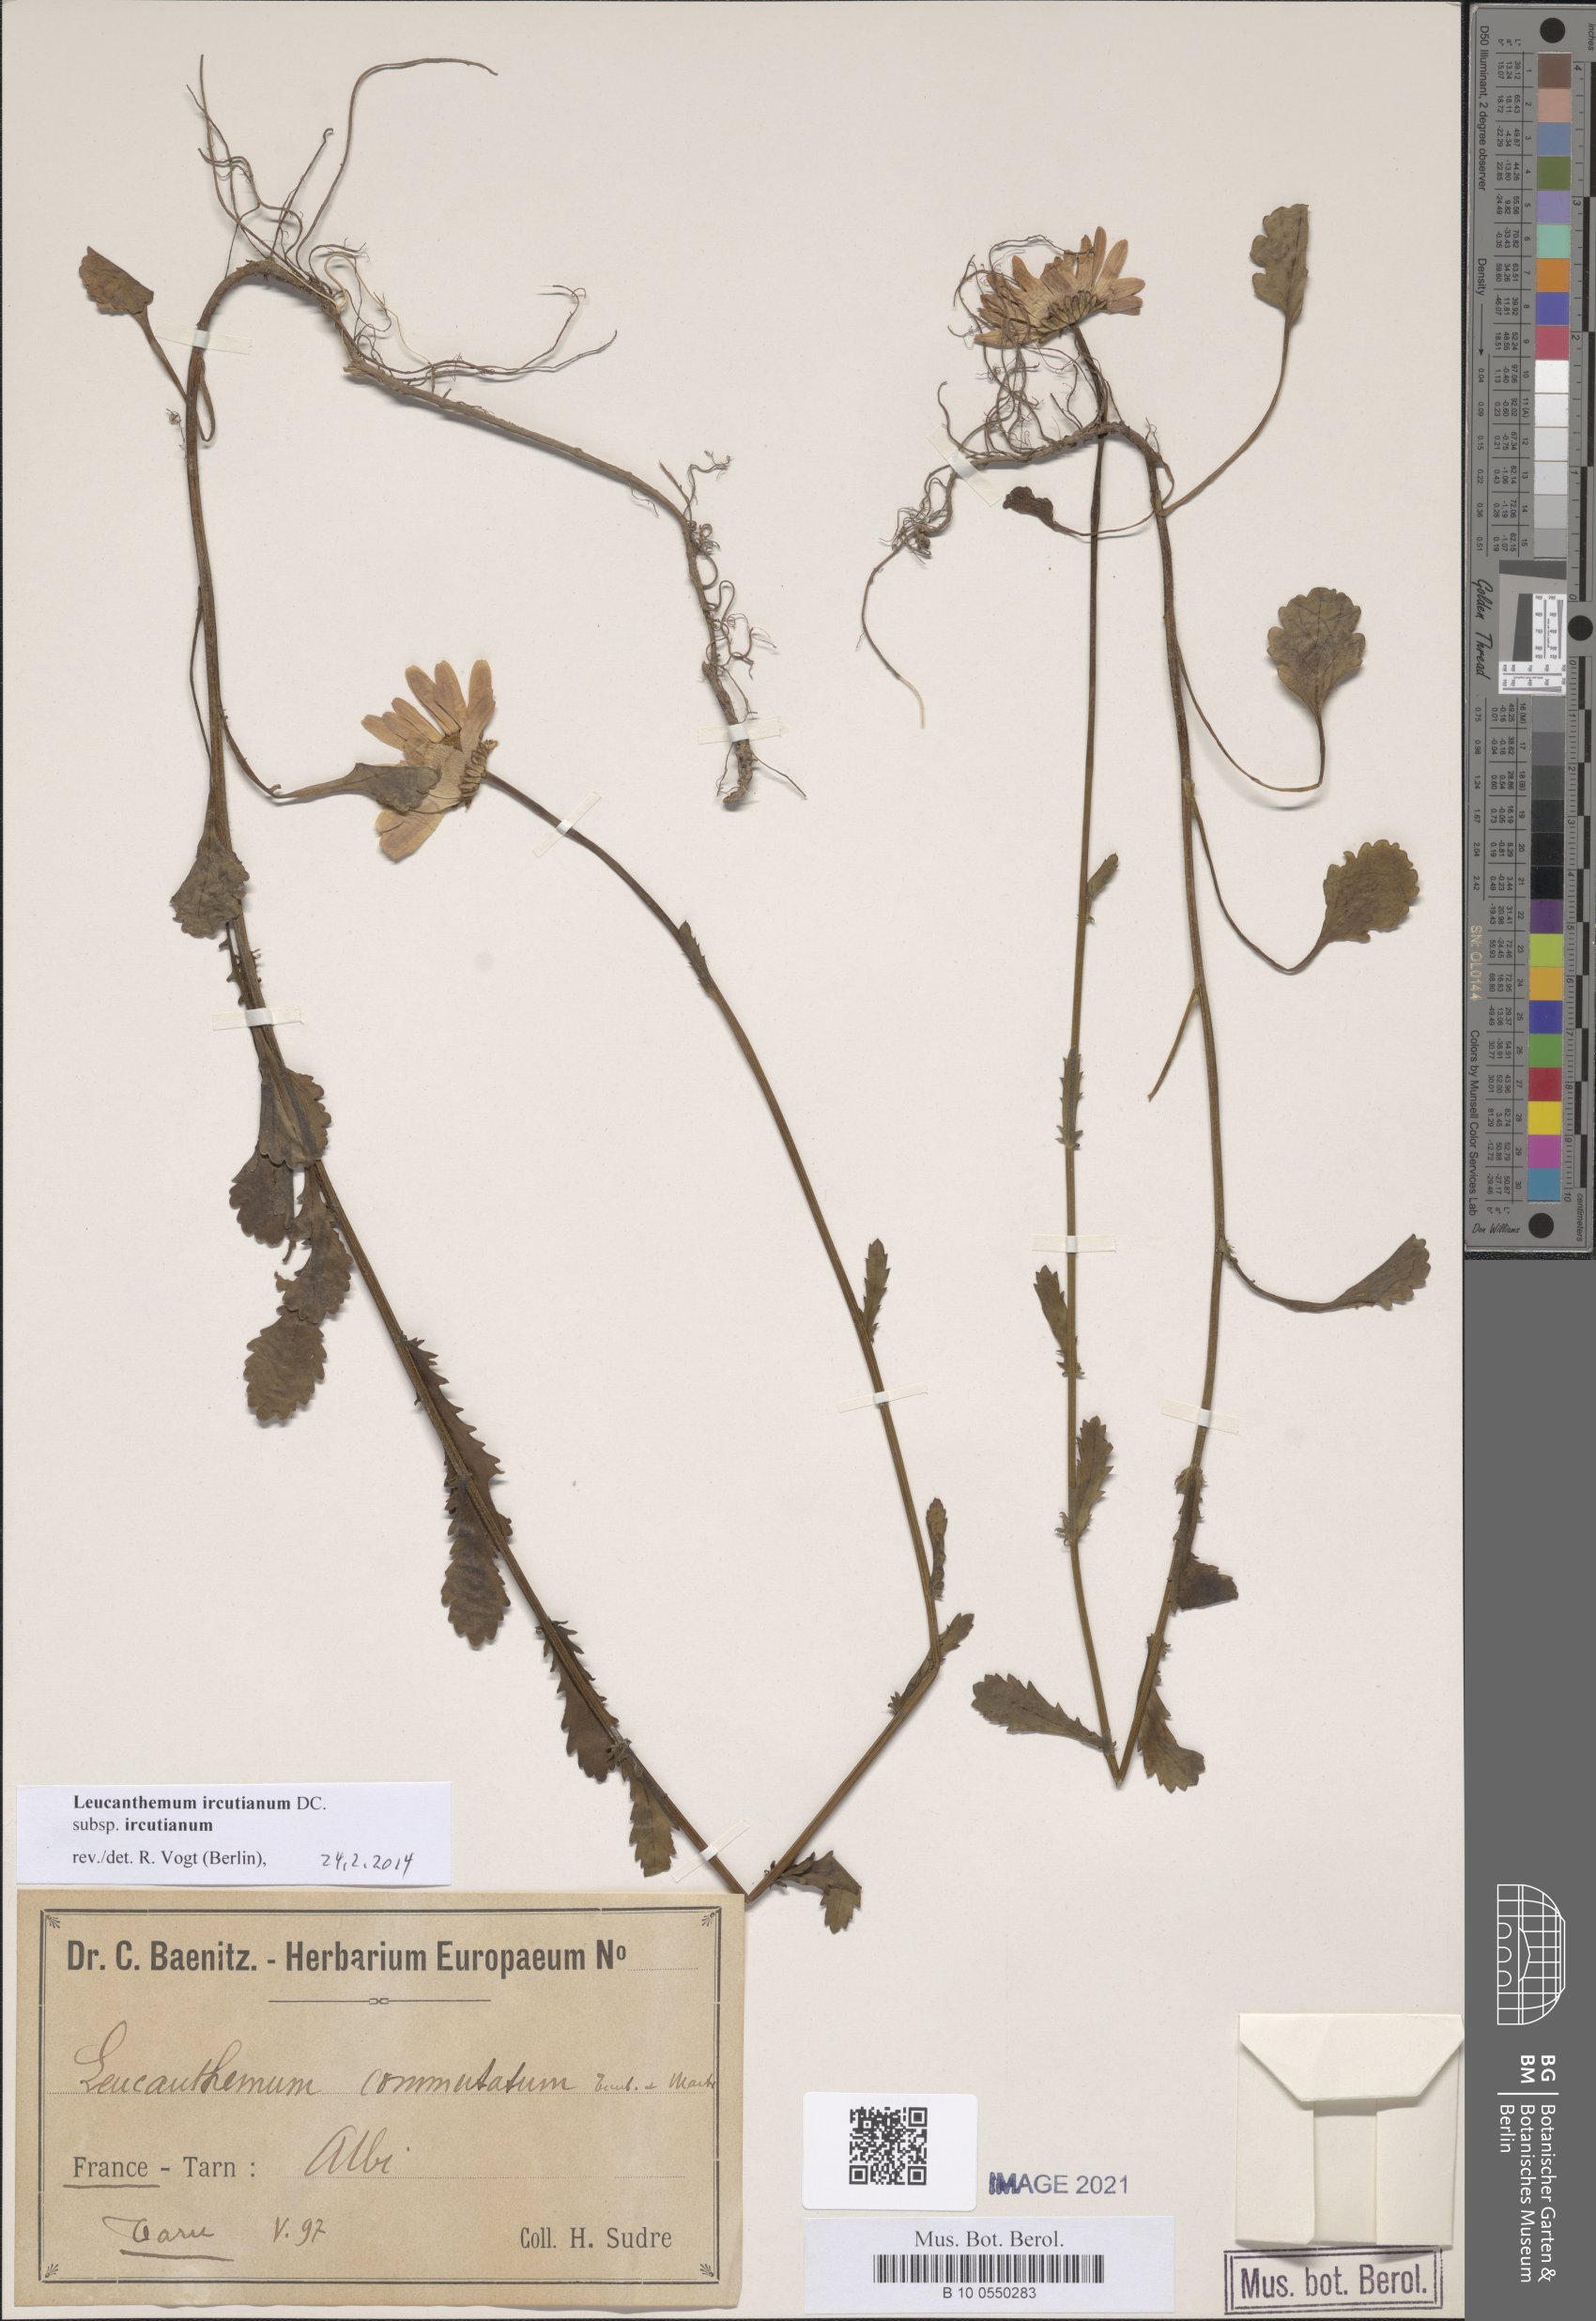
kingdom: Plantae
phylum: Tracheophyta
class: Magnoliopsida
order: Asterales
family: Asteraceae
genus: Leucanthemum
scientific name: Leucanthemum ircutianum
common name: Daisy
